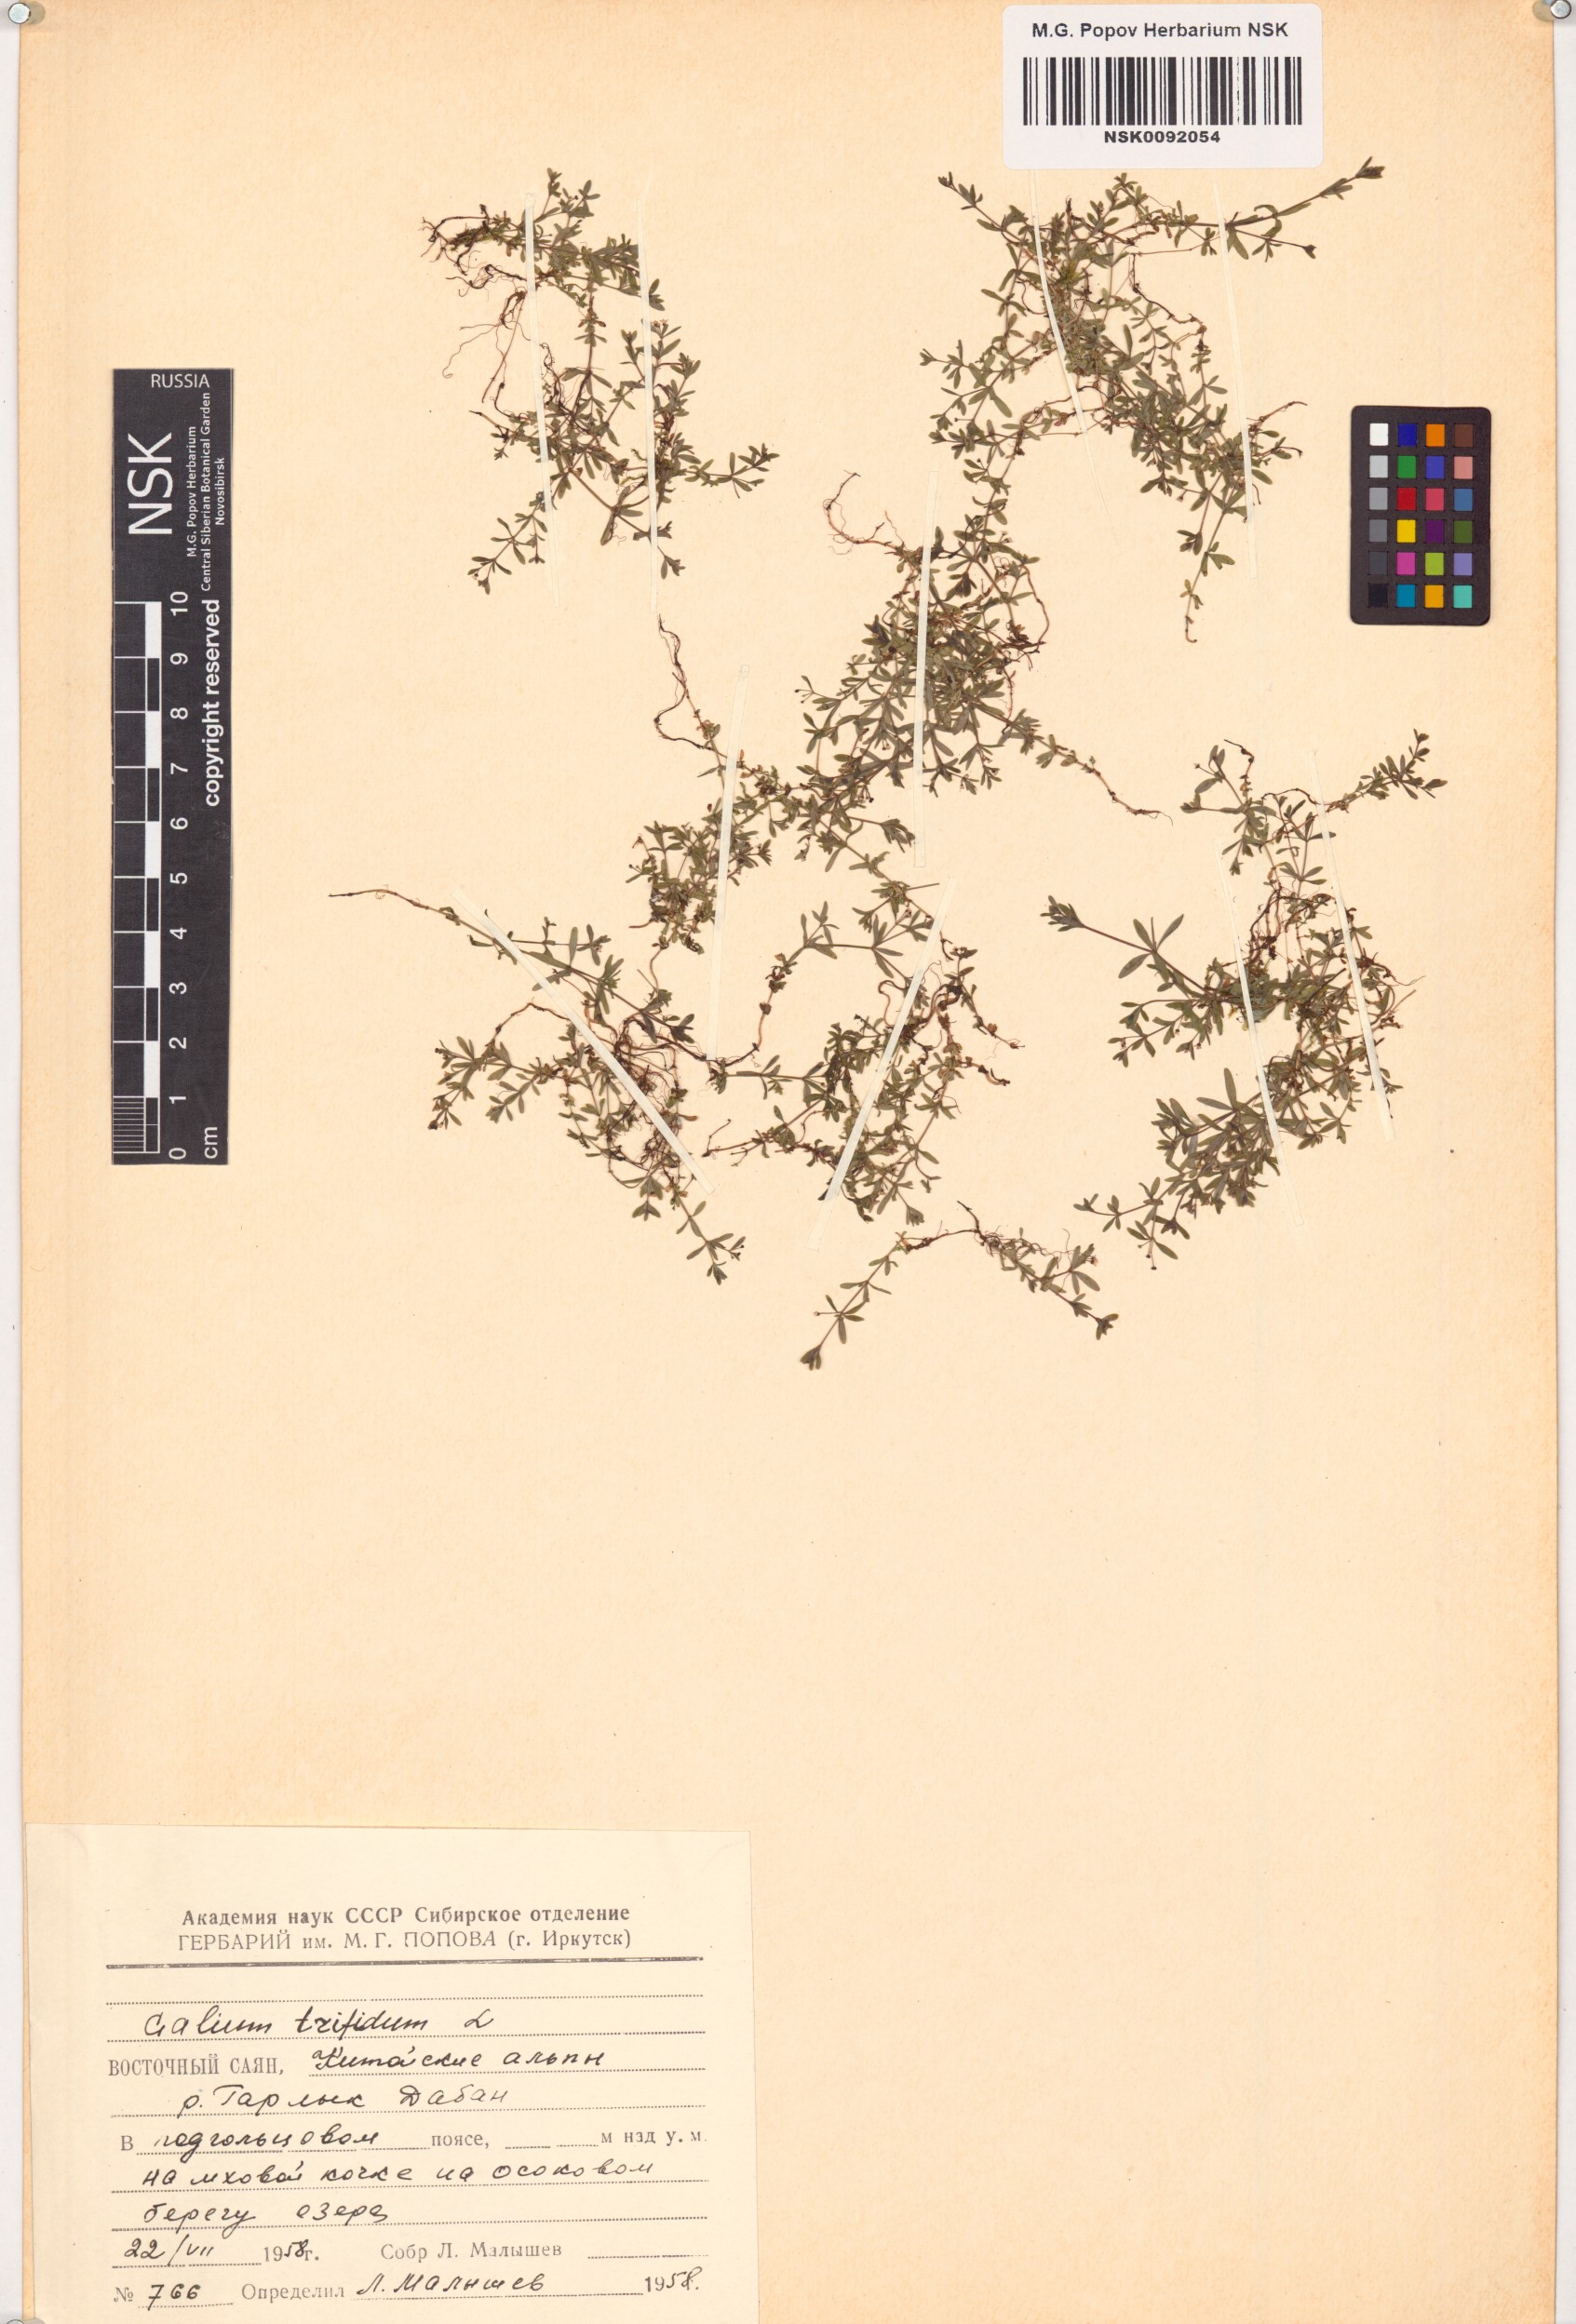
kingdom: Plantae
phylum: Tracheophyta
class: Magnoliopsida
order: Gentianales
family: Rubiaceae
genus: Galium
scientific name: Galium trifidum
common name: Small bedstraw
